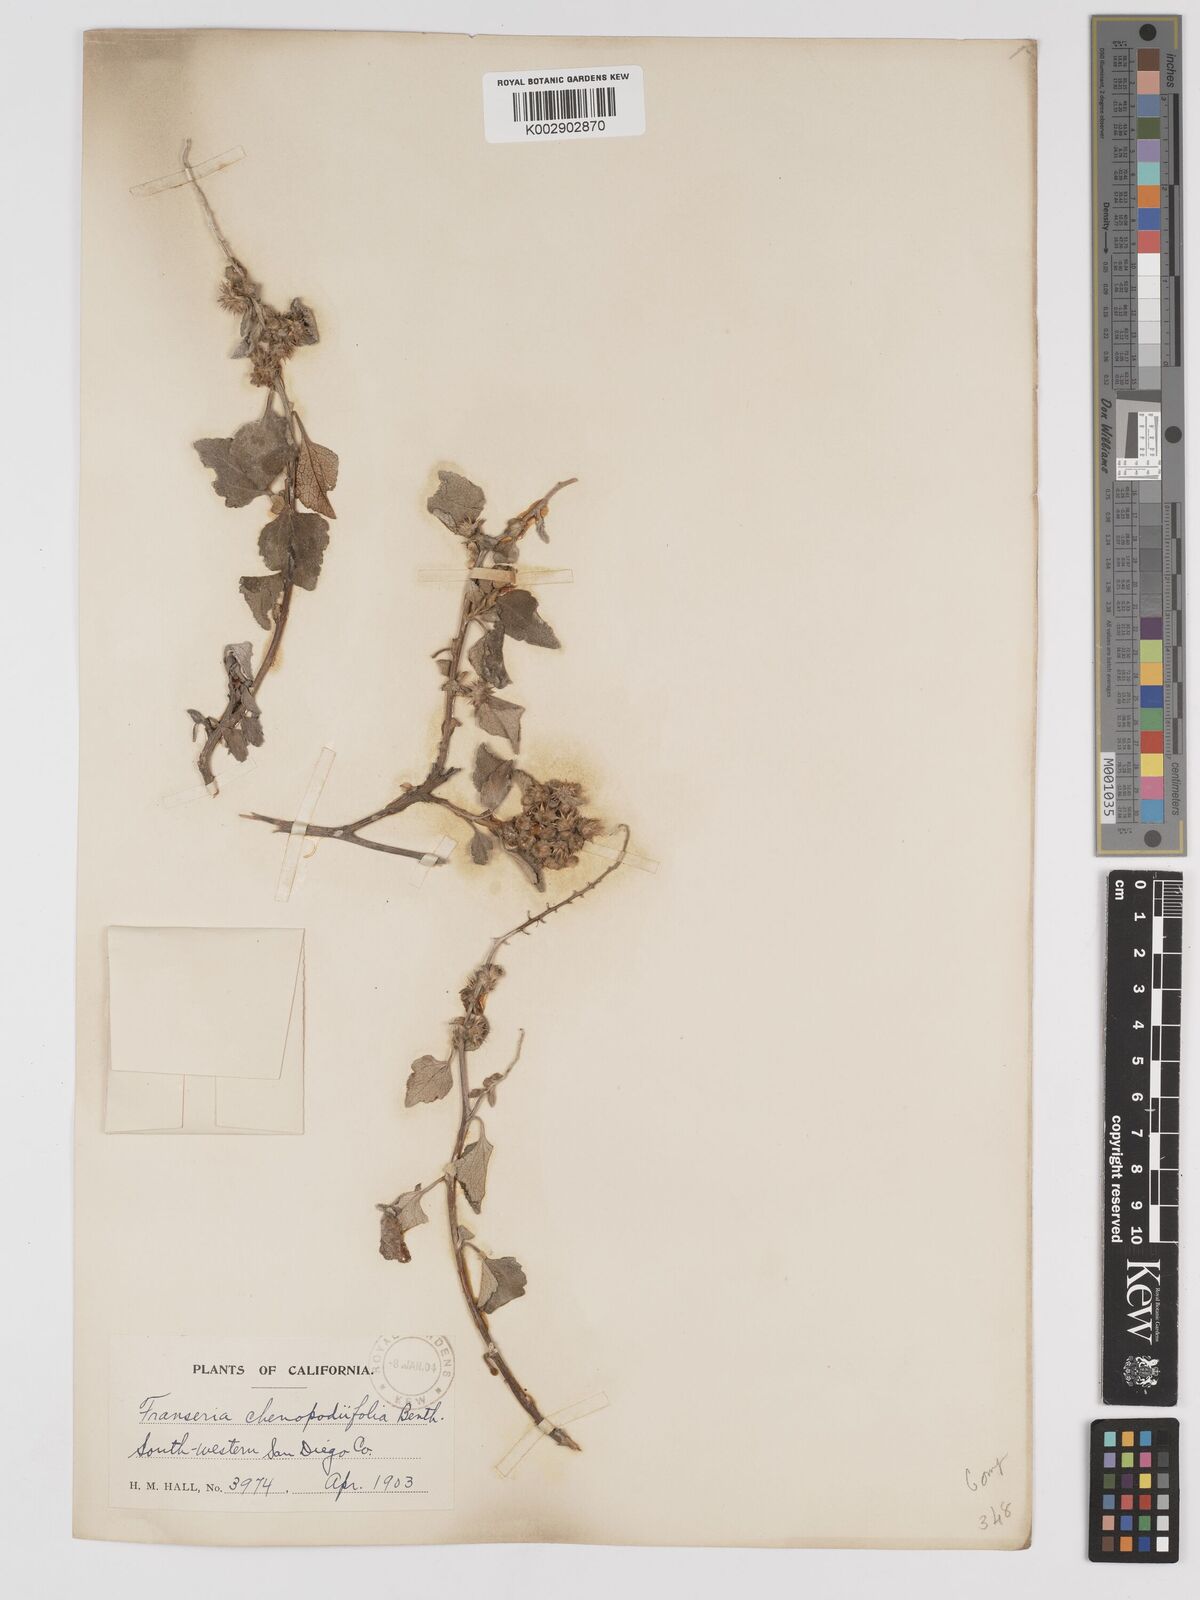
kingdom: Plantae
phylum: Tracheophyta
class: Magnoliopsida
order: Asterales
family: Asteraceae
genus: Ambrosia
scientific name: Ambrosia chenopodiifolia
